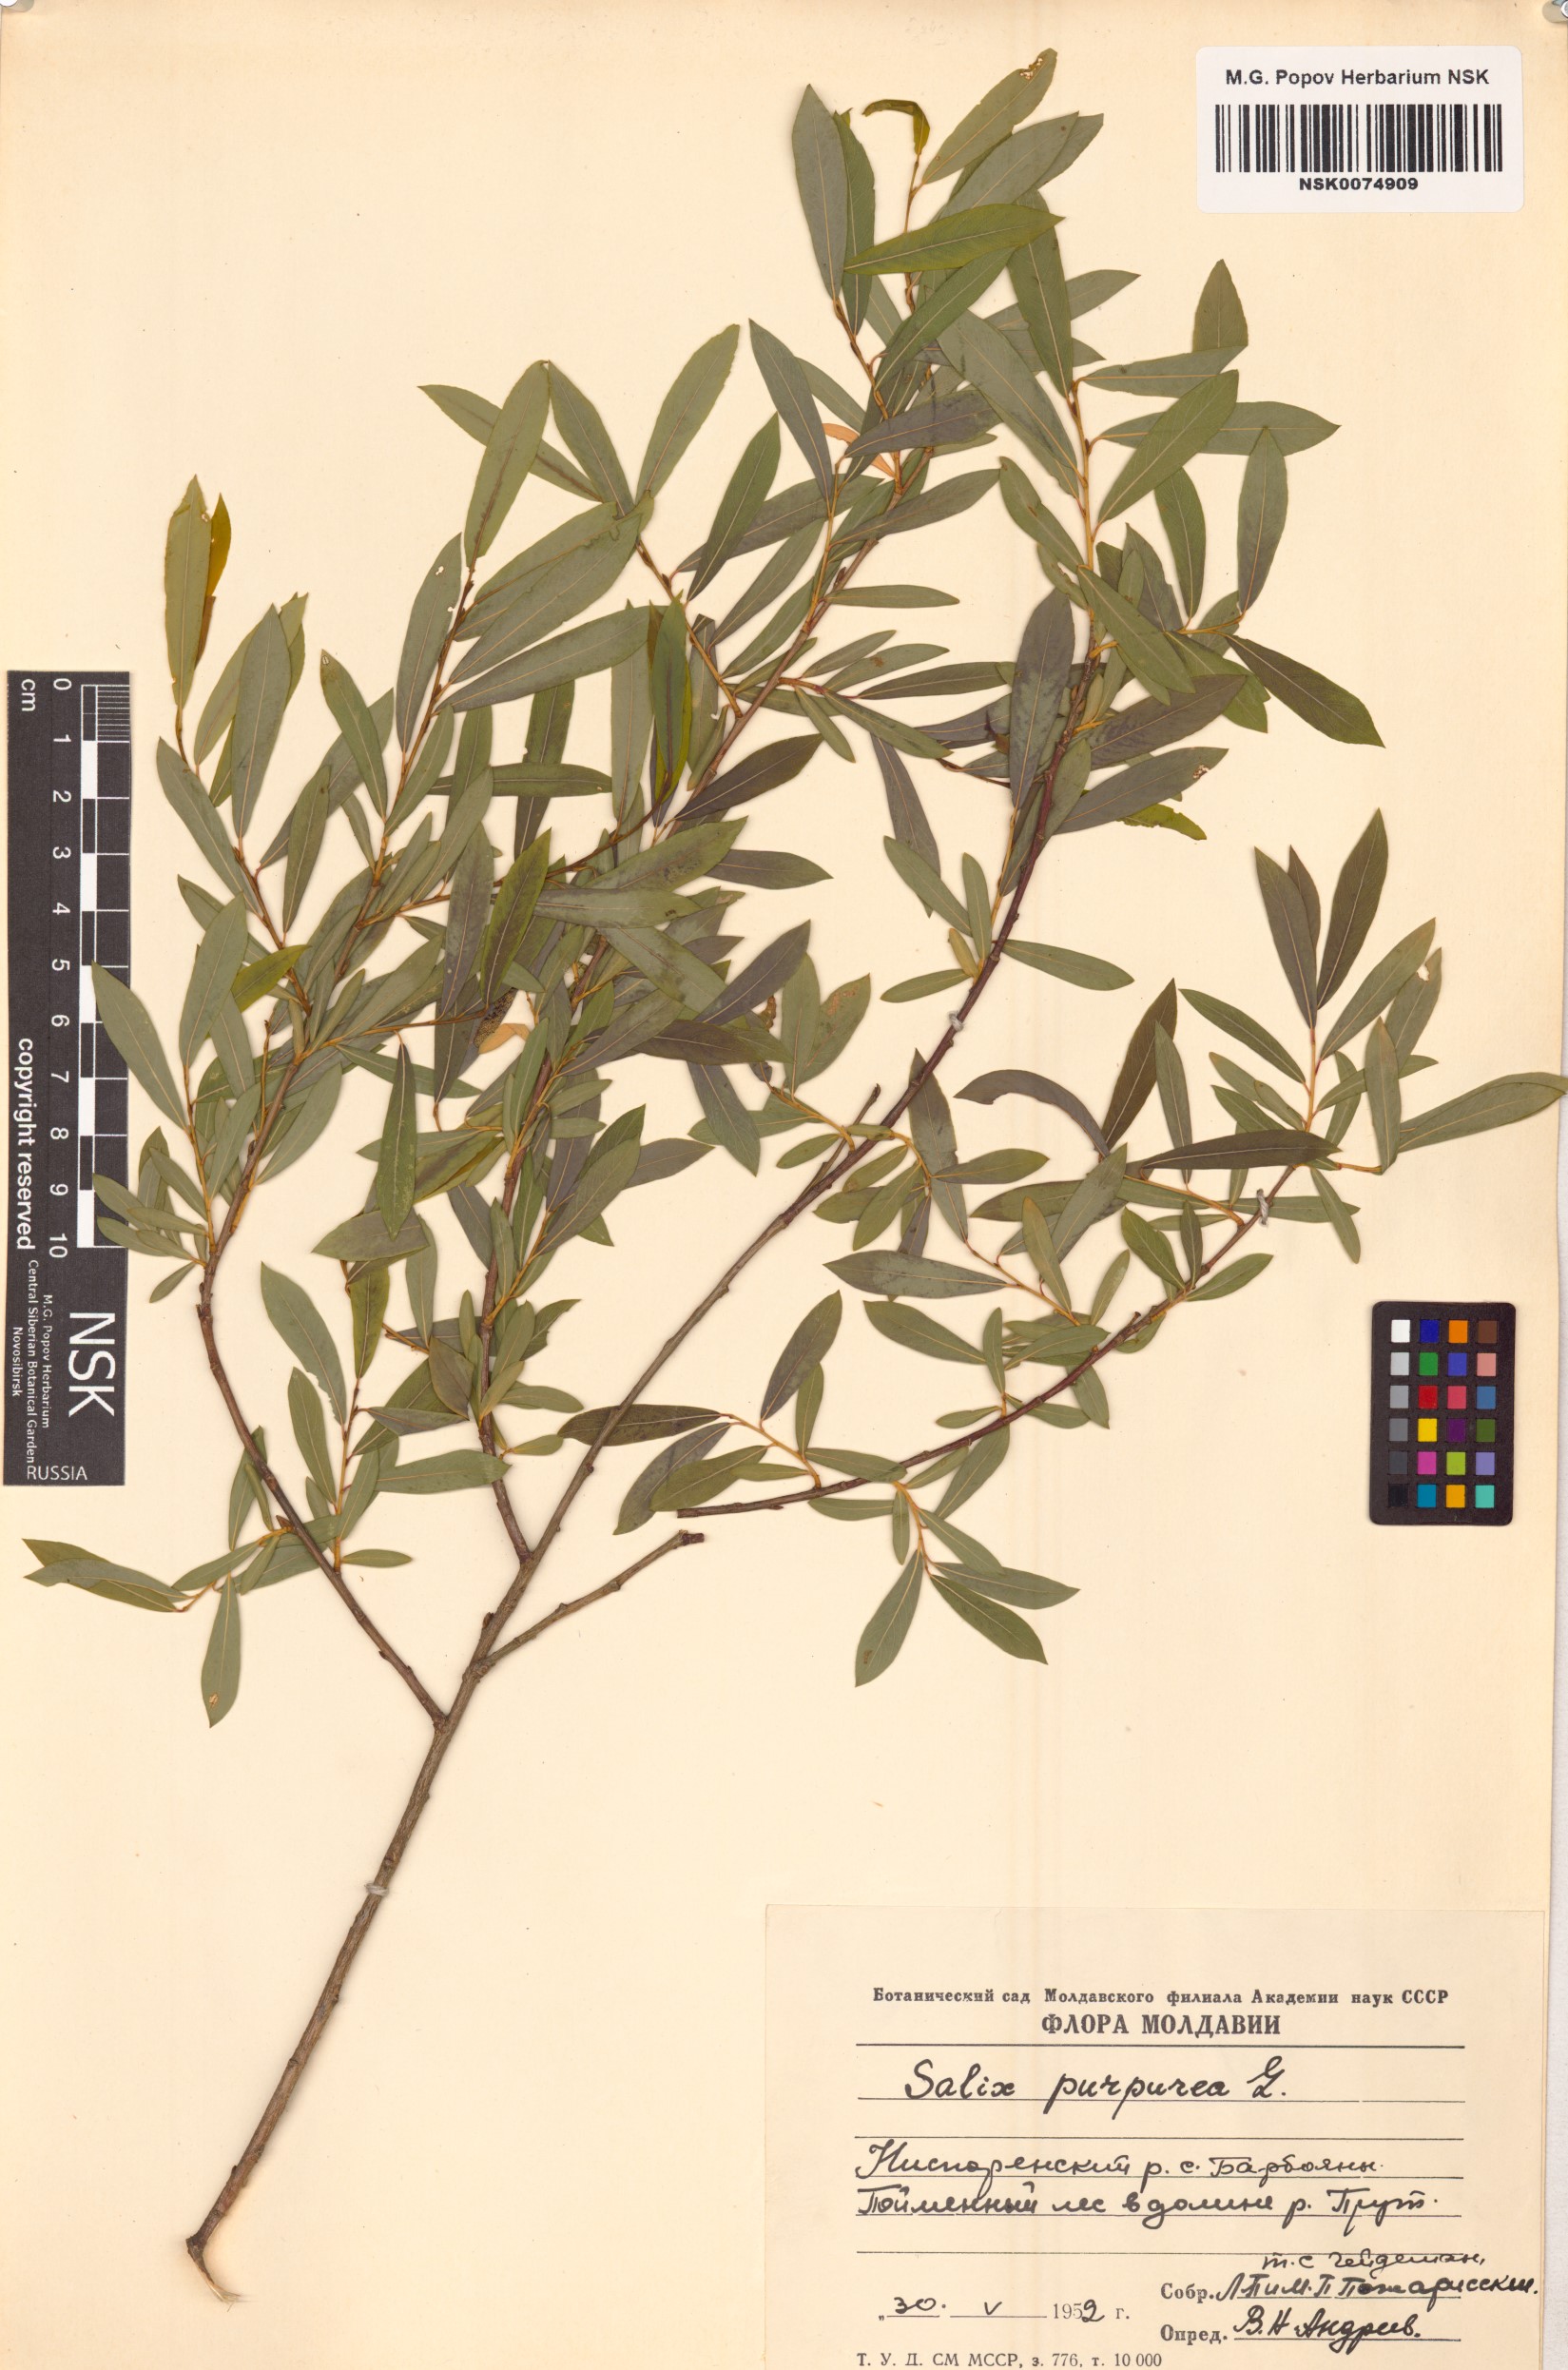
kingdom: Plantae
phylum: Tracheophyta
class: Magnoliopsida
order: Malpighiales
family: Salicaceae
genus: Salix
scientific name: Salix purpurea
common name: Purple willow
